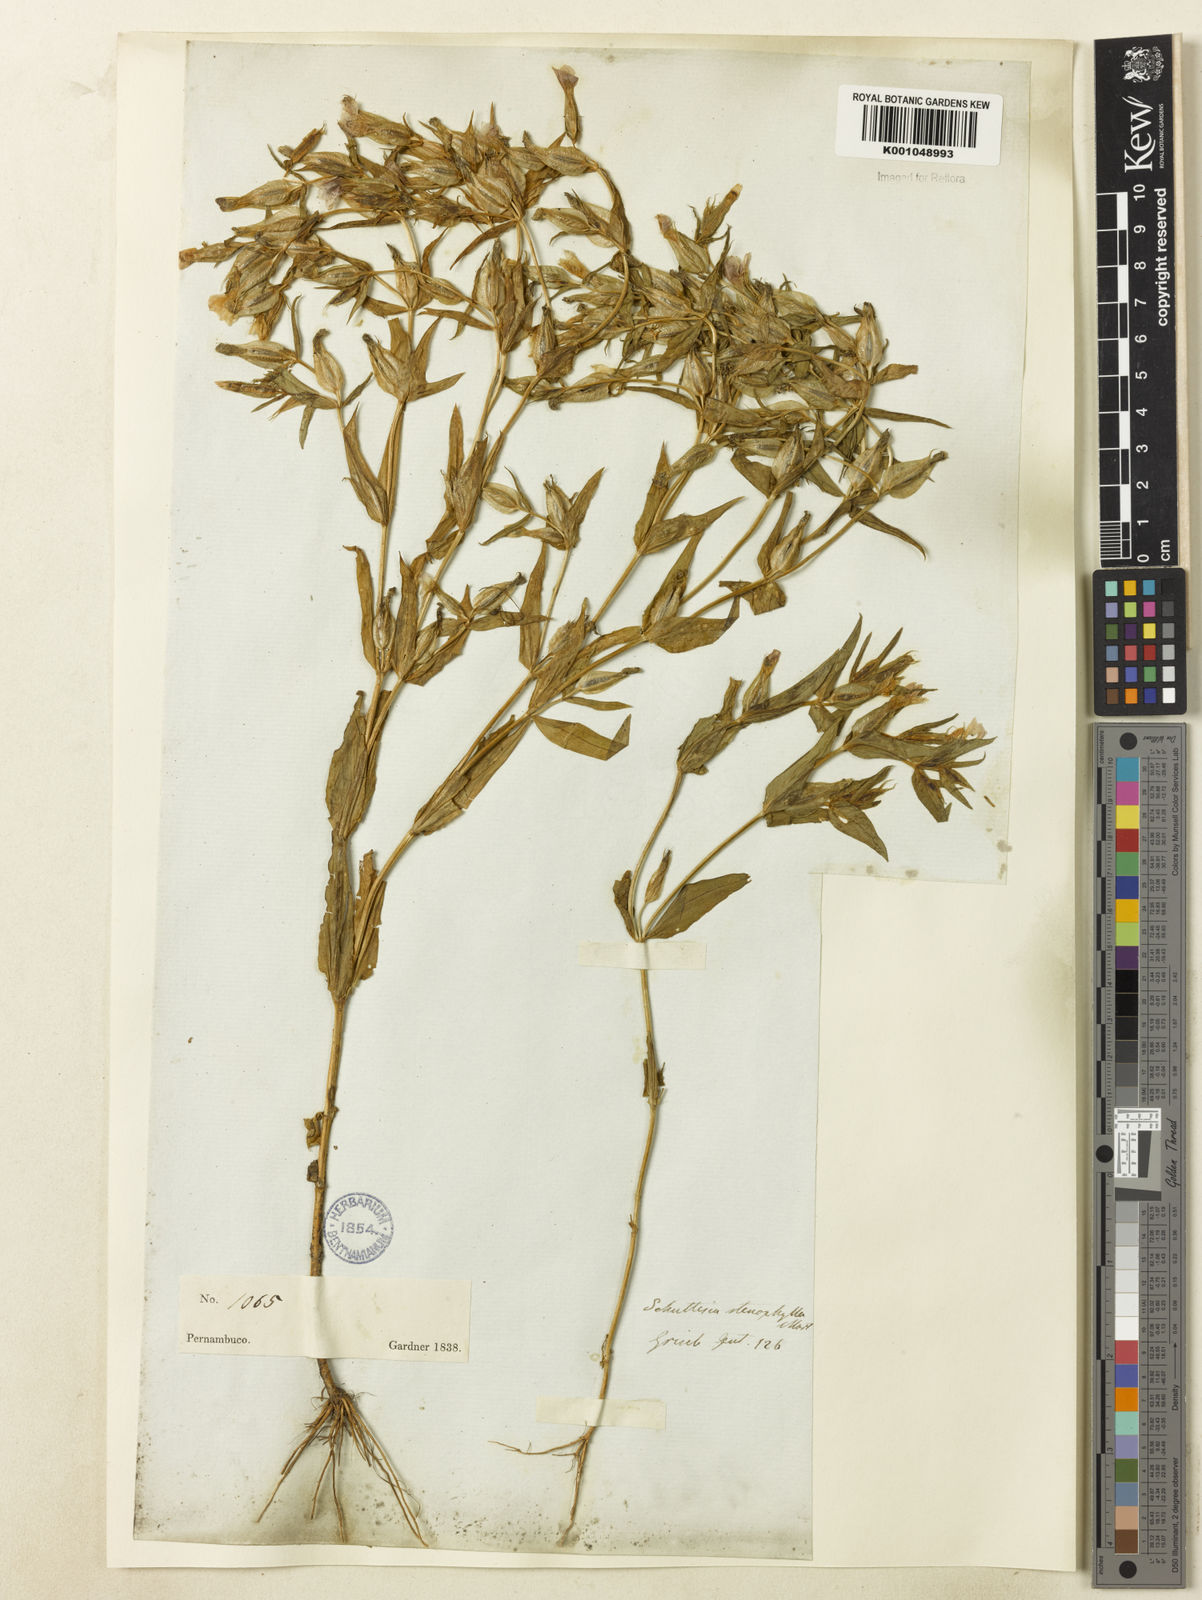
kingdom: Plantae
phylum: Tracheophyta
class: Magnoliopsida
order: Gentianales
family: Gentianaceae
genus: Schultesia
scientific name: Schultesia australis
